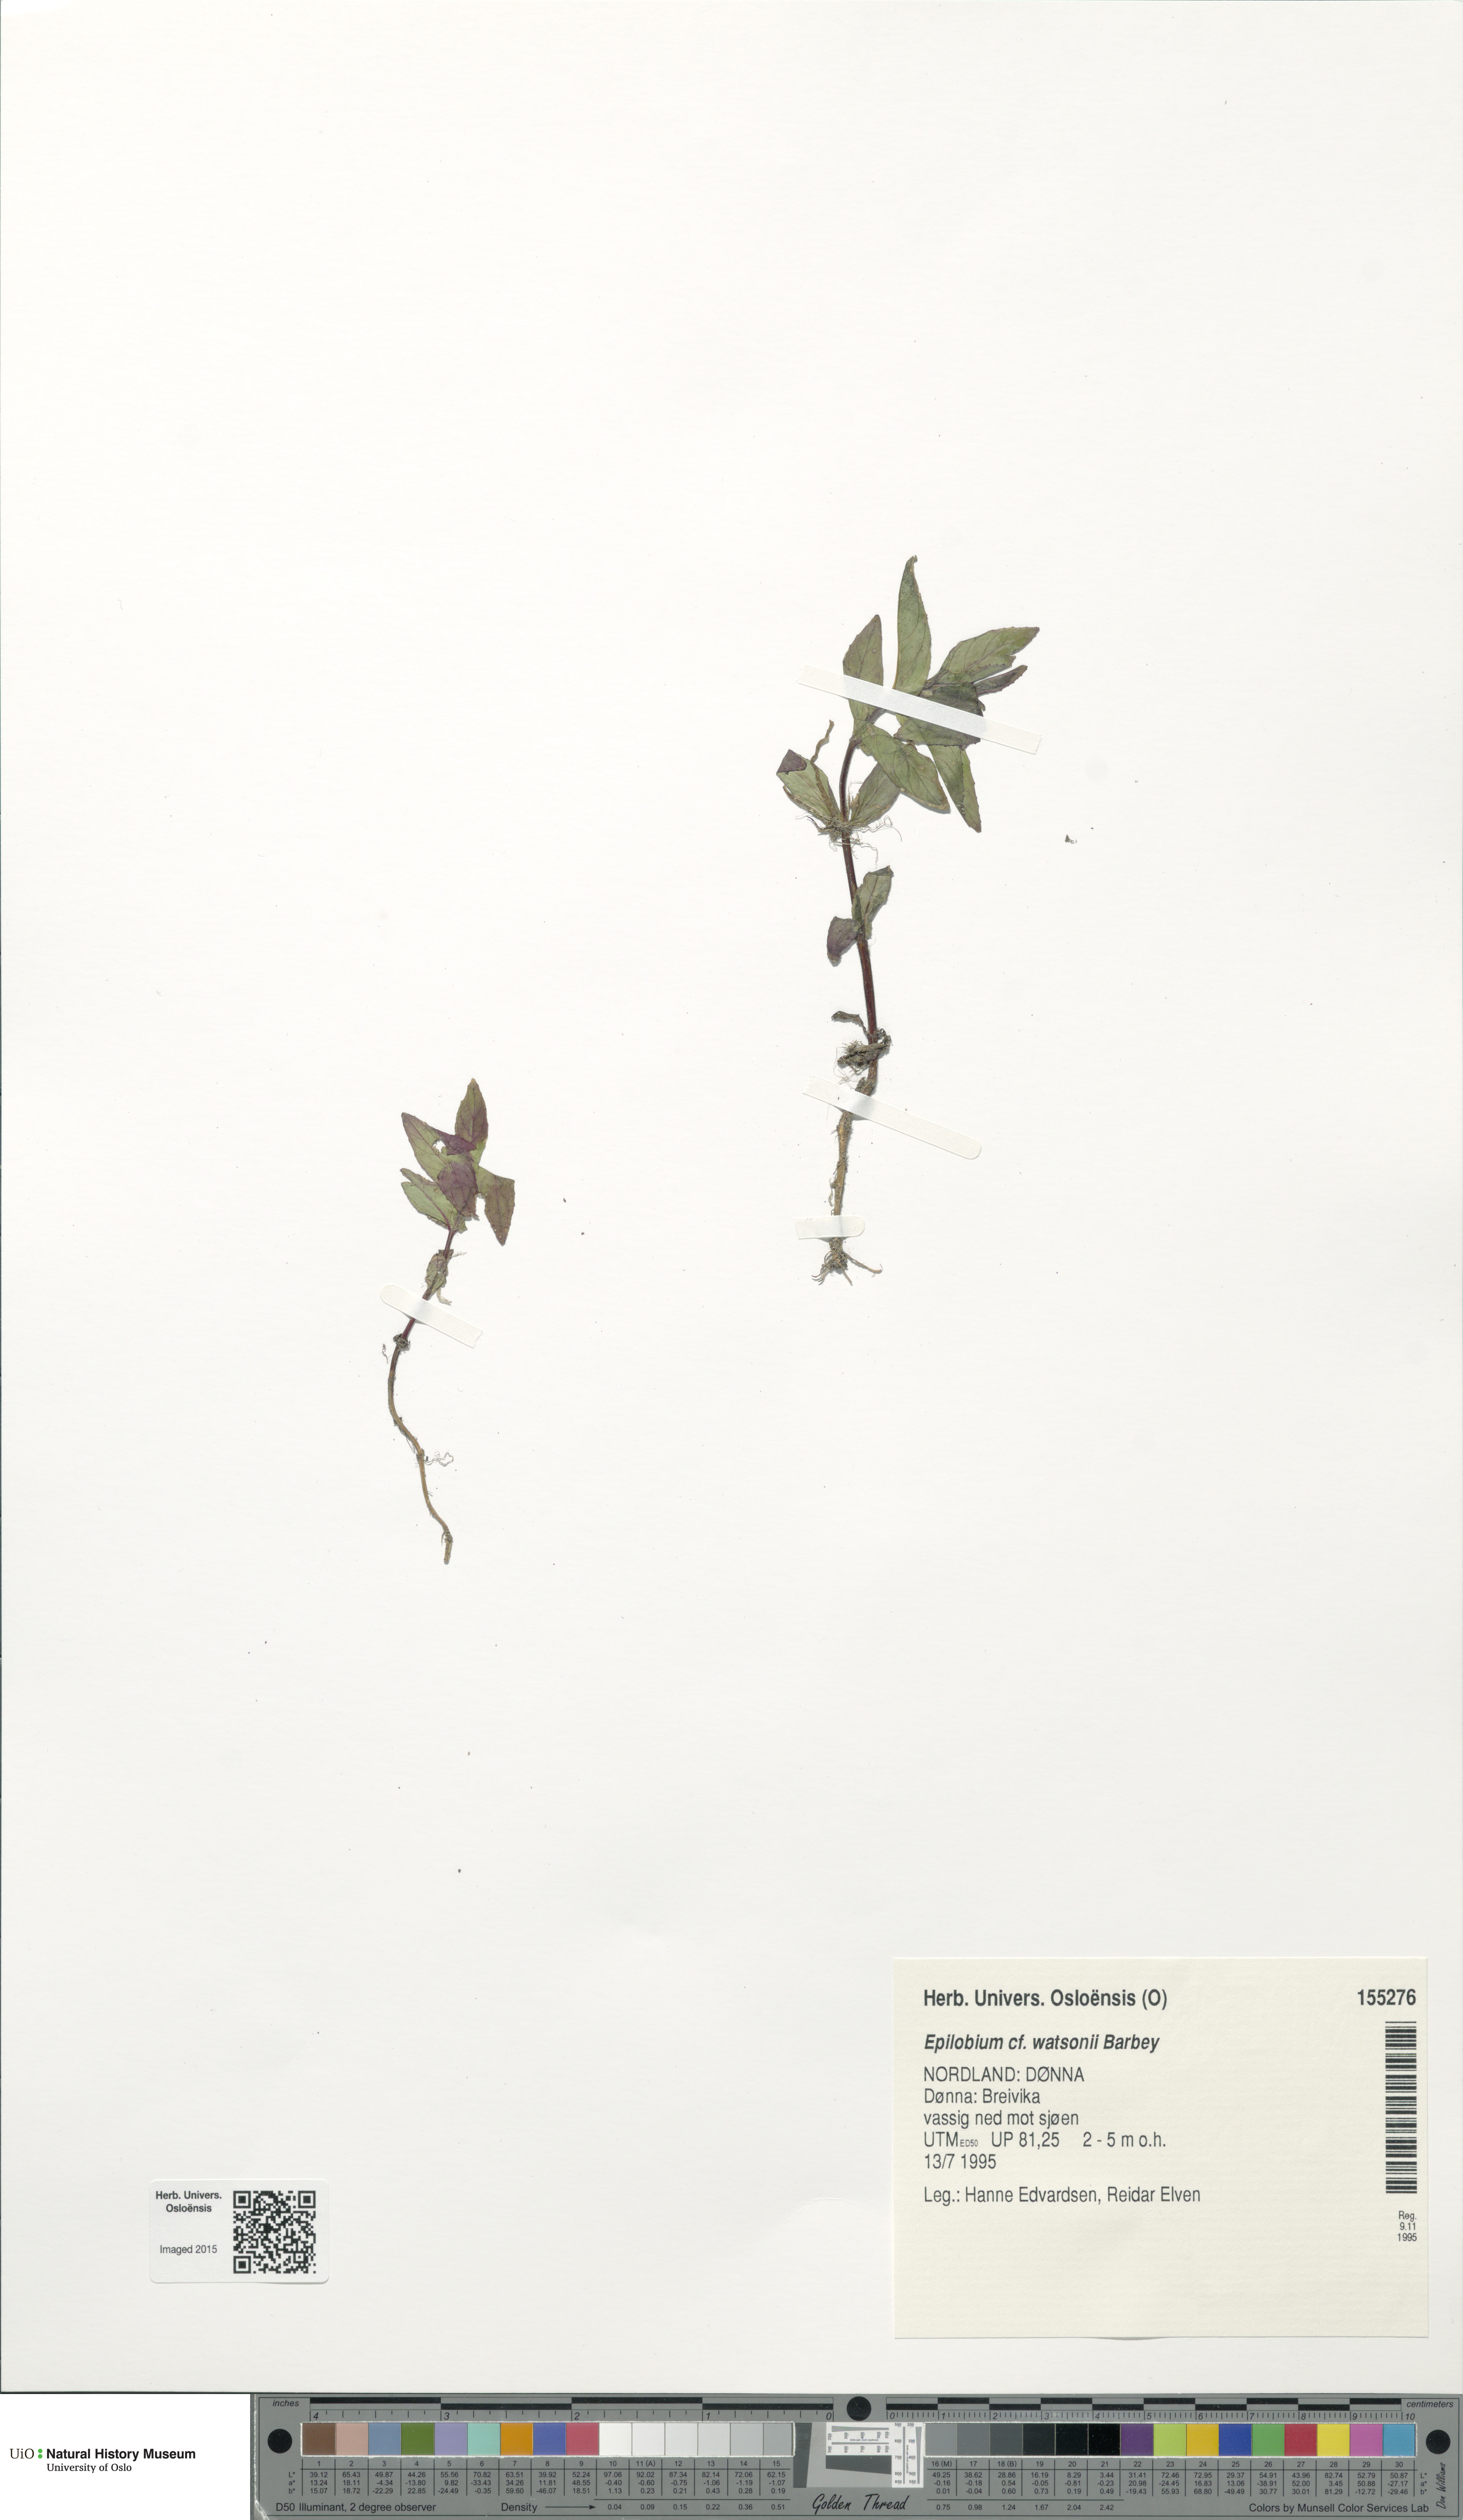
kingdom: Plantae
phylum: Tracheophyta
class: Magnoliopsida
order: Myrtales
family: Onagraceae
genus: Epilobium
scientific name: Epilobium ciliatum
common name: American willowherb
